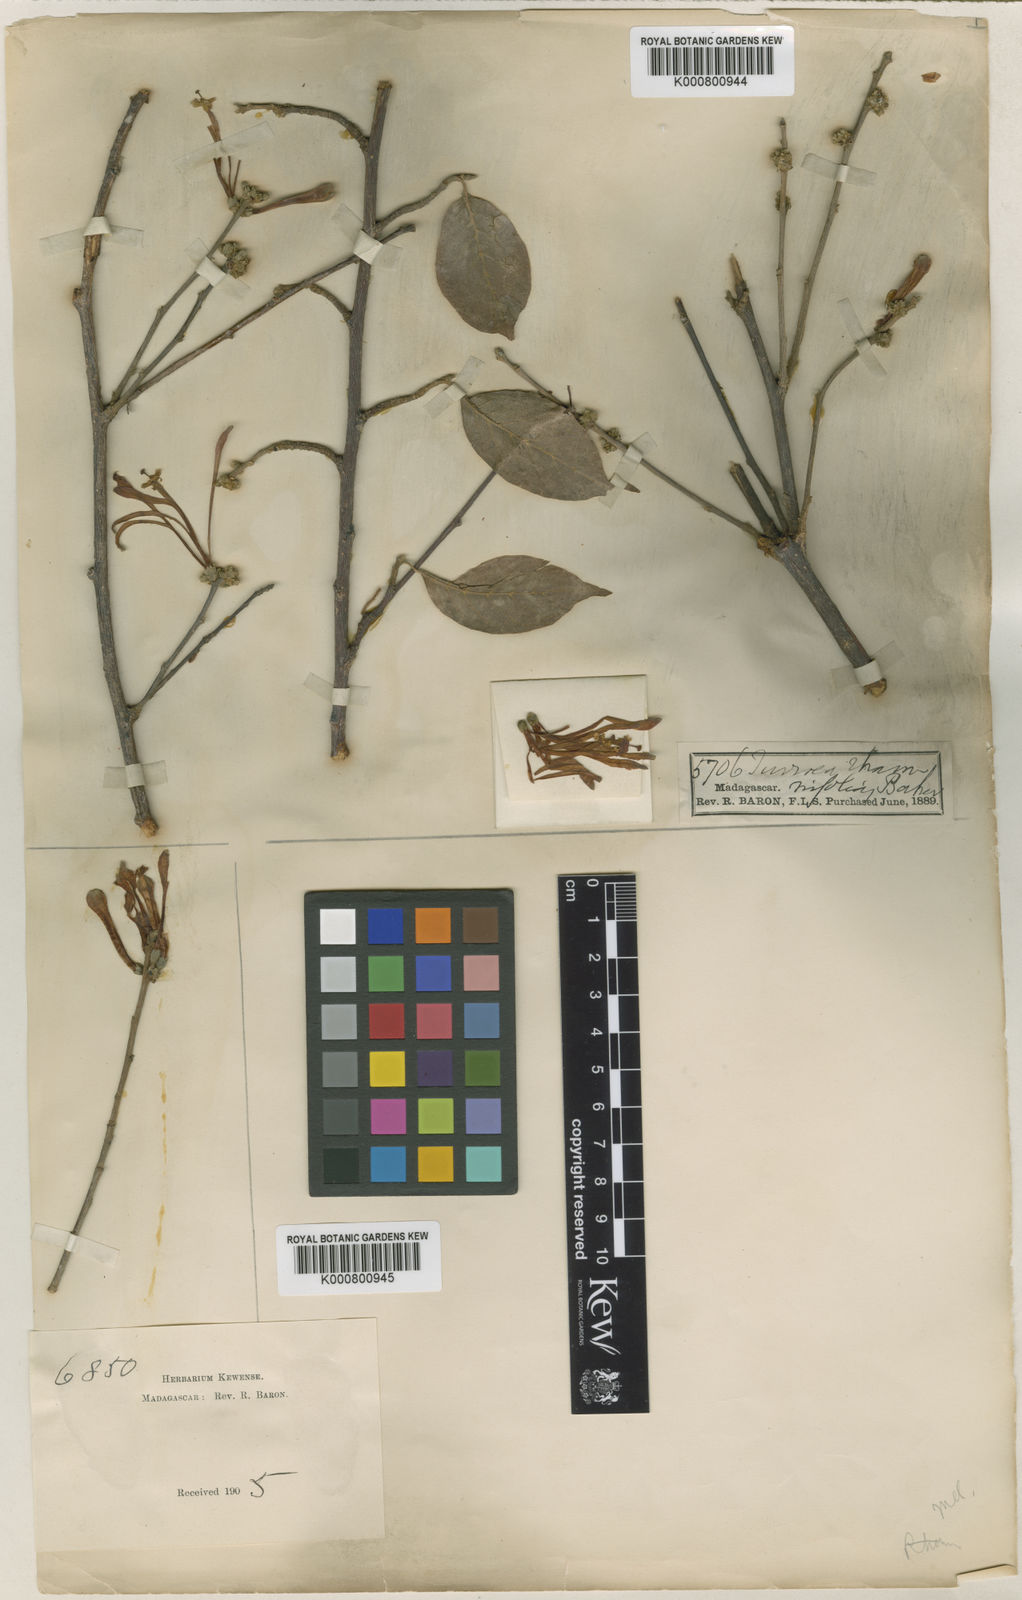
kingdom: Plantae
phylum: Tracheophyta
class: Magnoliopsida
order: Sapindales
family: Meliaceae
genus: Humbertioturraea
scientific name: Humbertioturraea rhamnifolia
